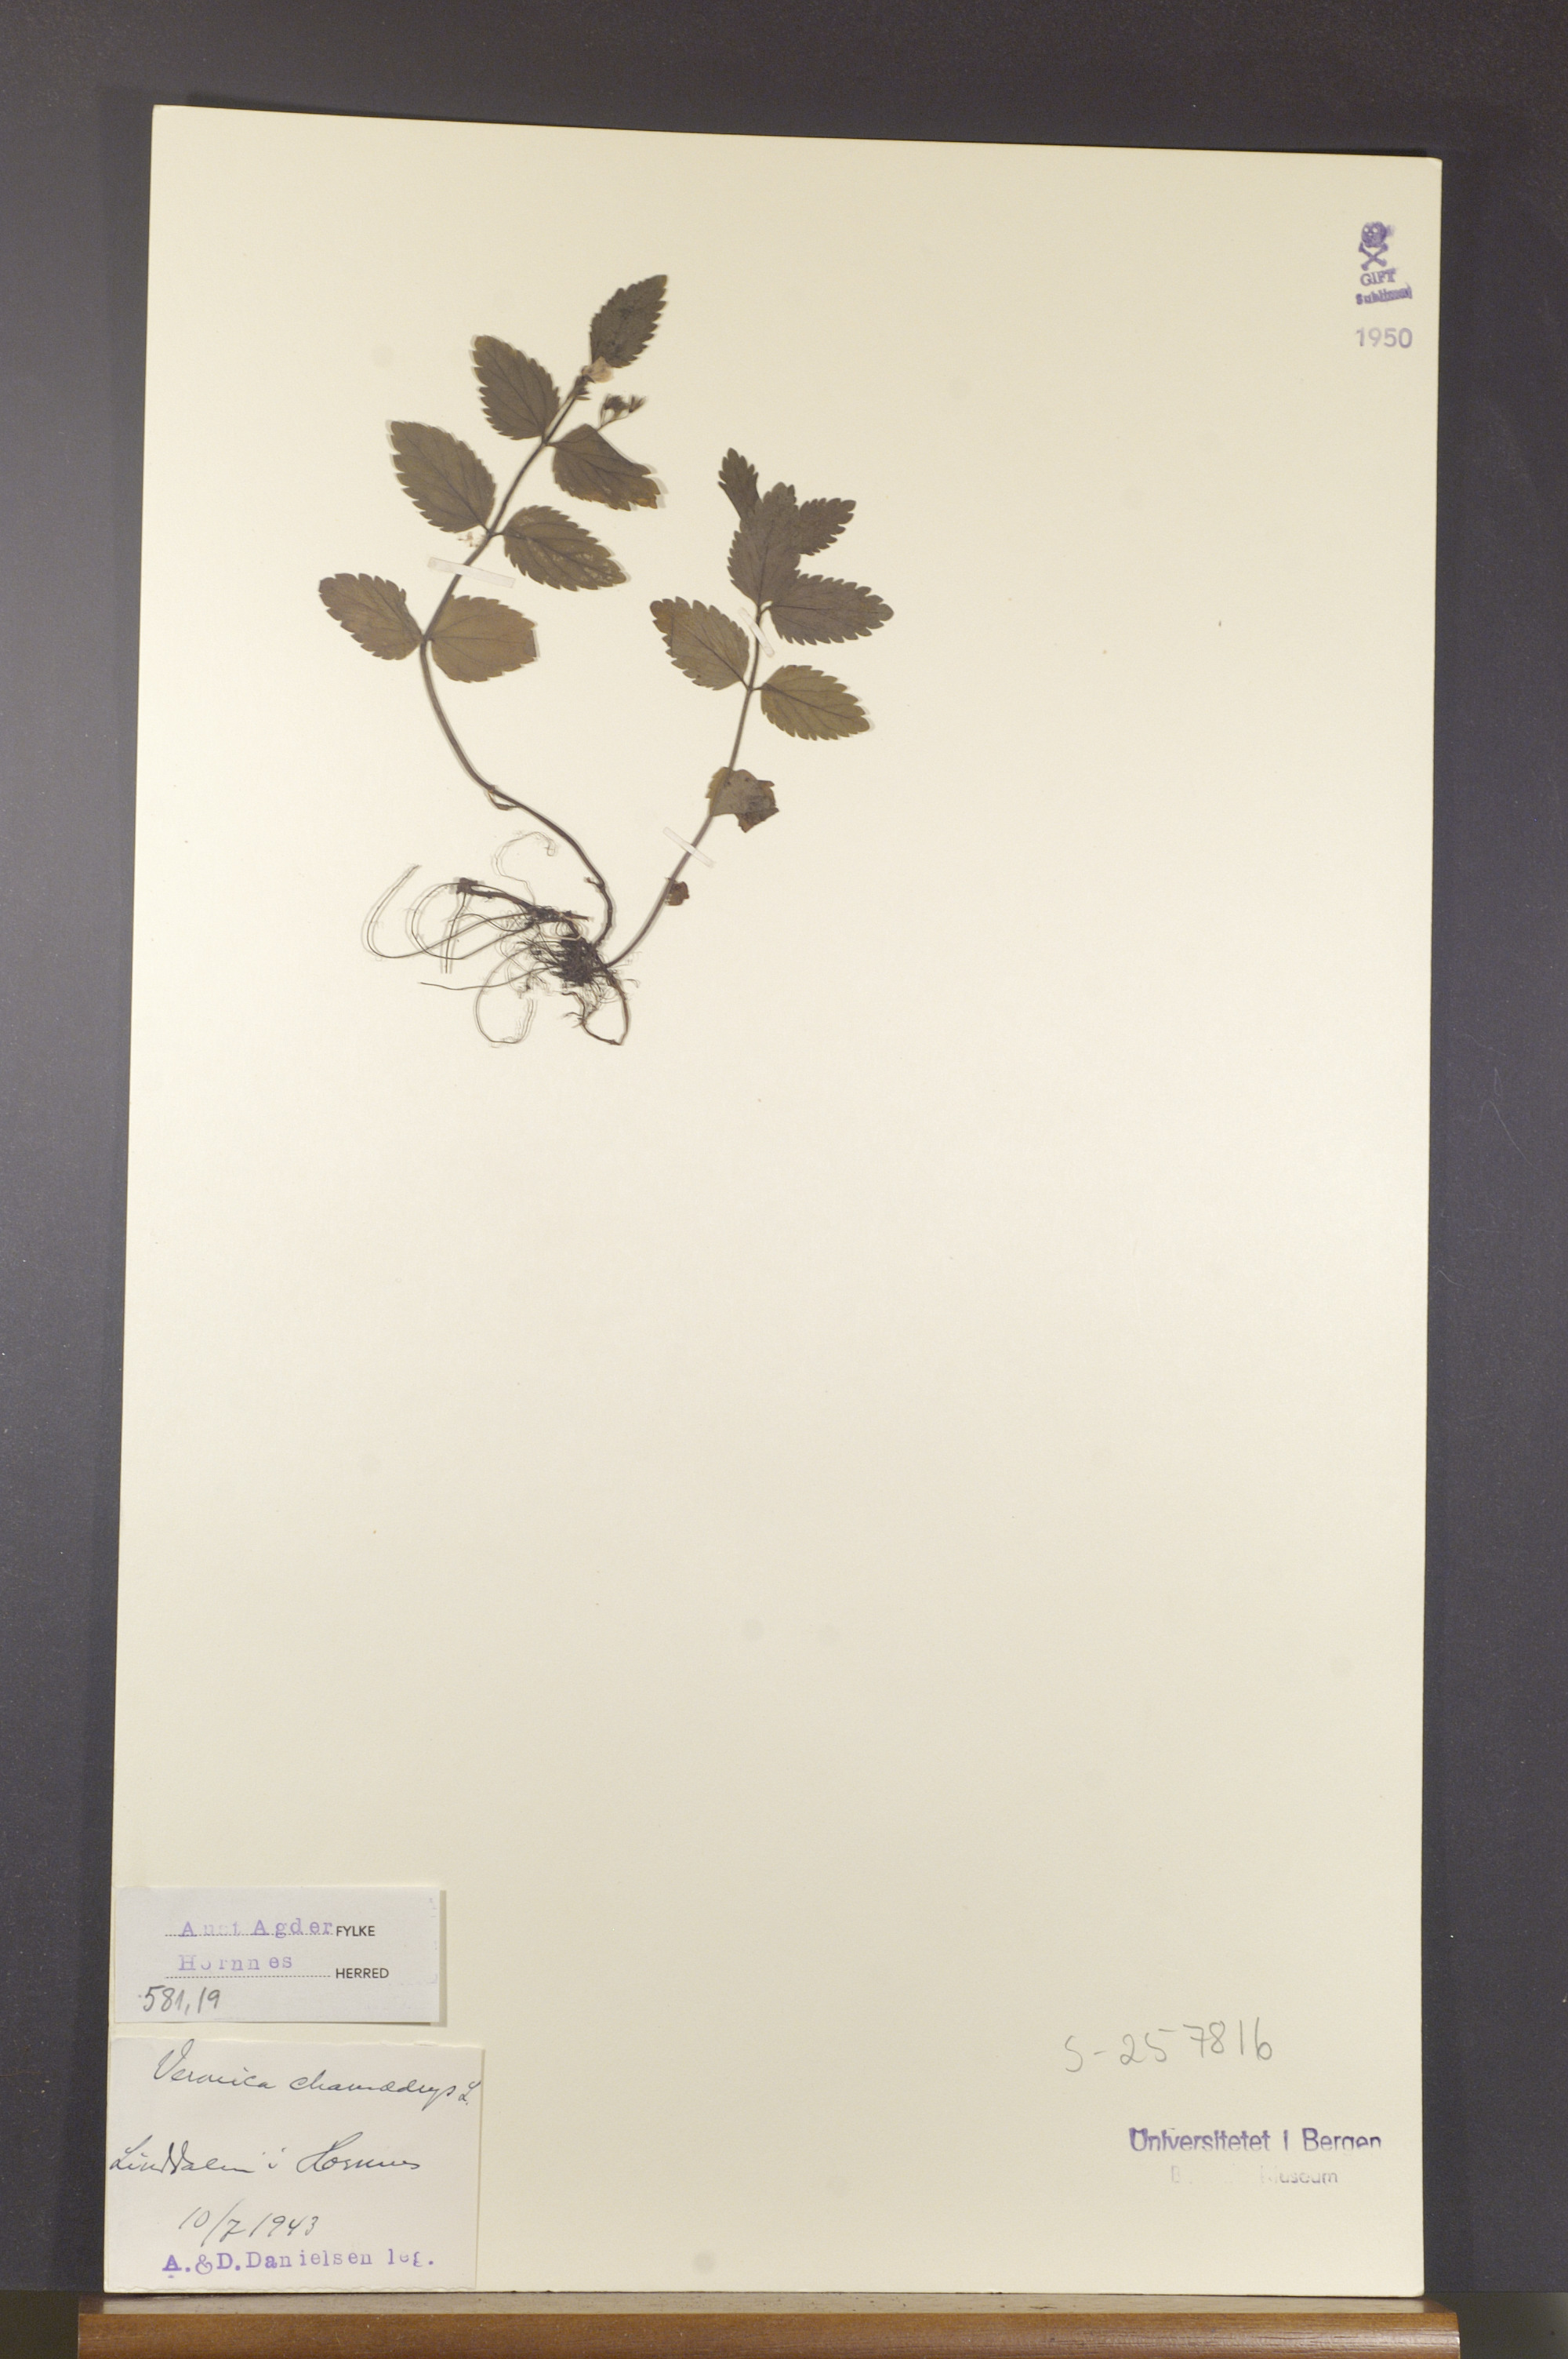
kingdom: Plantae
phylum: Tracheophyta
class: Magnoliopsida
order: Lamiales
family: Plantaginaceae
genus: Veronica
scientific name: Veronica chamaedrys
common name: Germander speedwell
